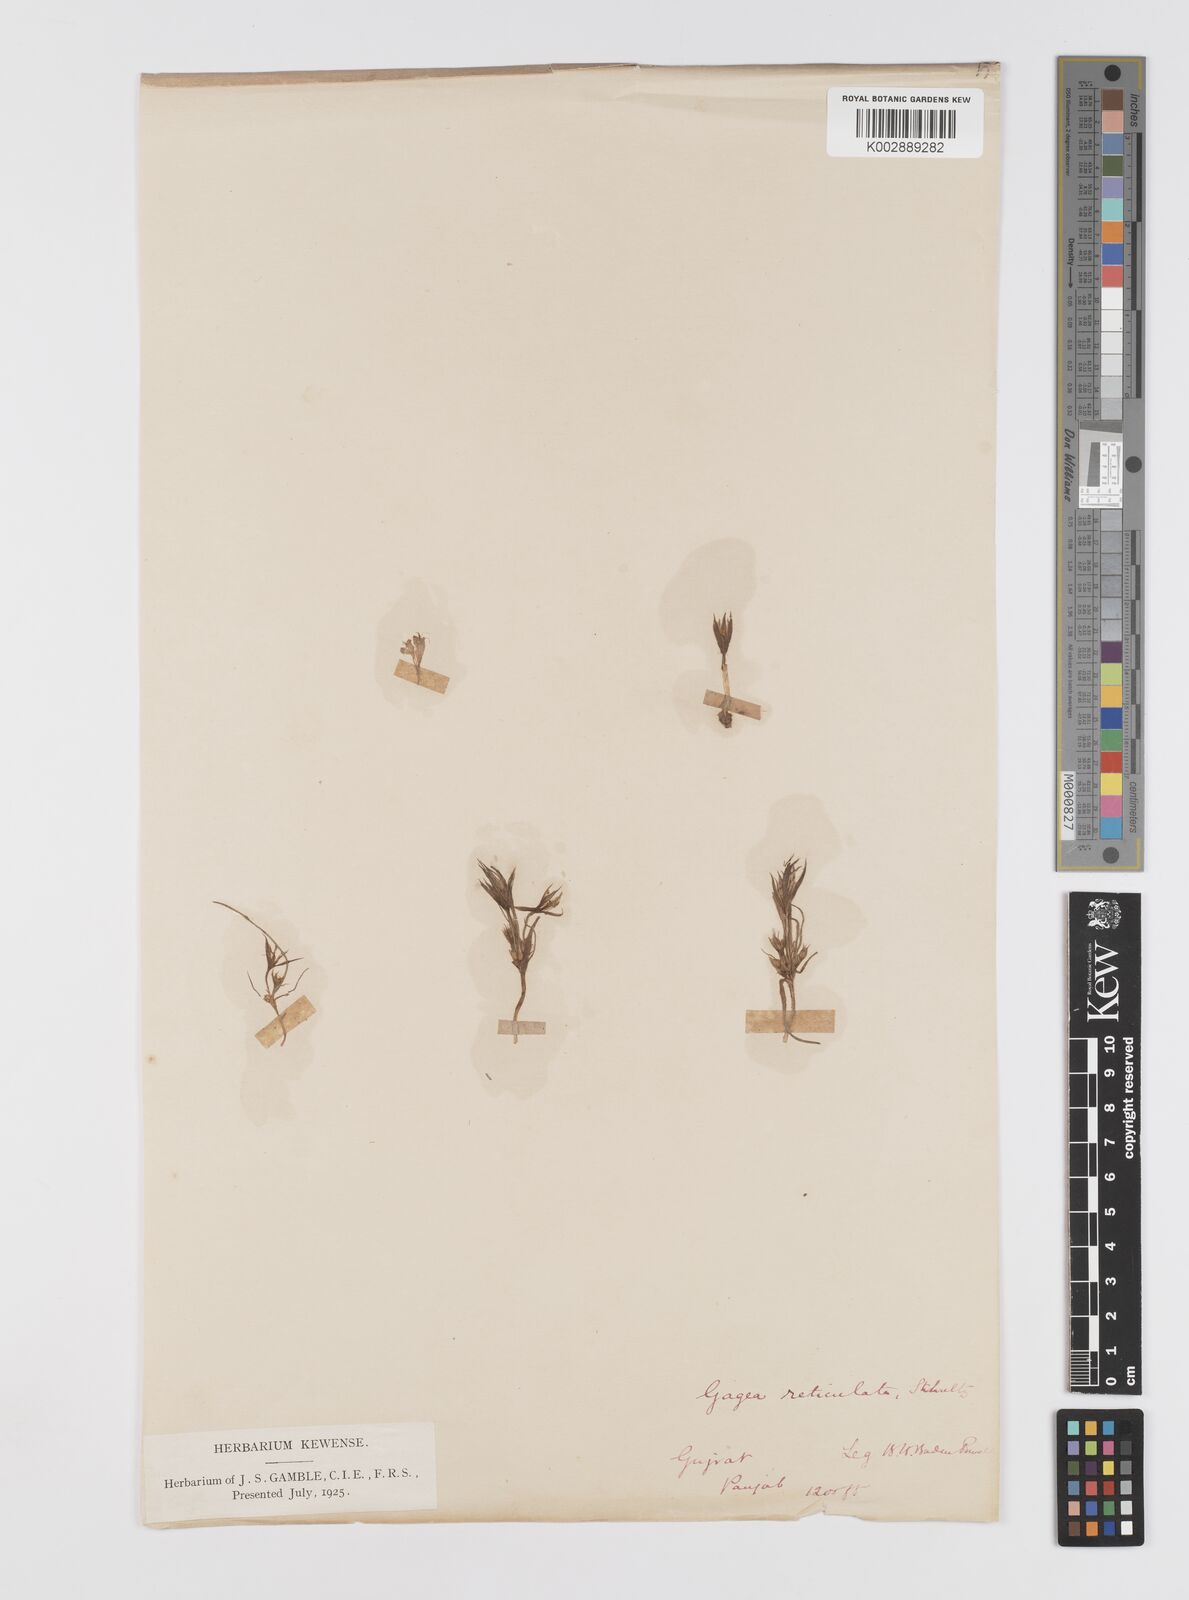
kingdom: Plantae
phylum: Tracheophyta
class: Liliopsida
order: Liliales
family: Liliaceae
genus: Gagea
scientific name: Gagea reticulata
